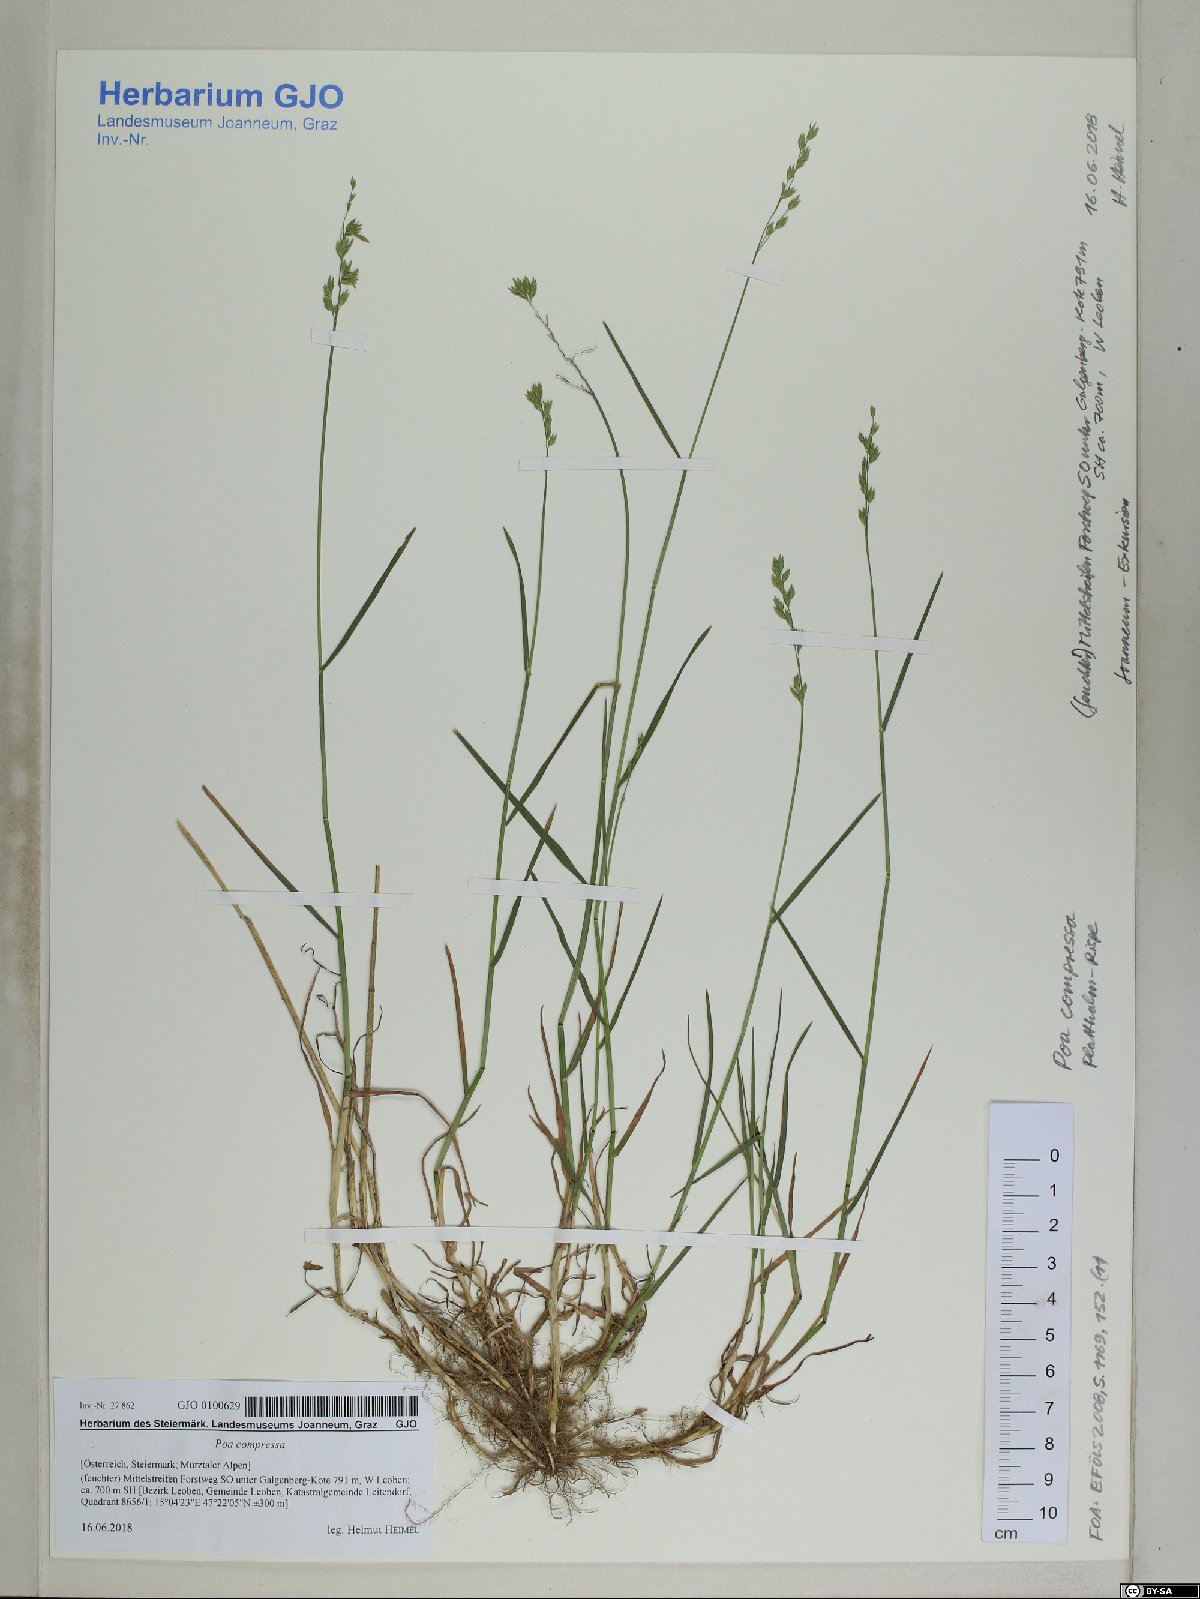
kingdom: Plantae
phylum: Tracheophyta
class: Liliopsida
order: Poales
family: Poaceae
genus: Poa
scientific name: Poa compressa
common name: Canada bluegrass
